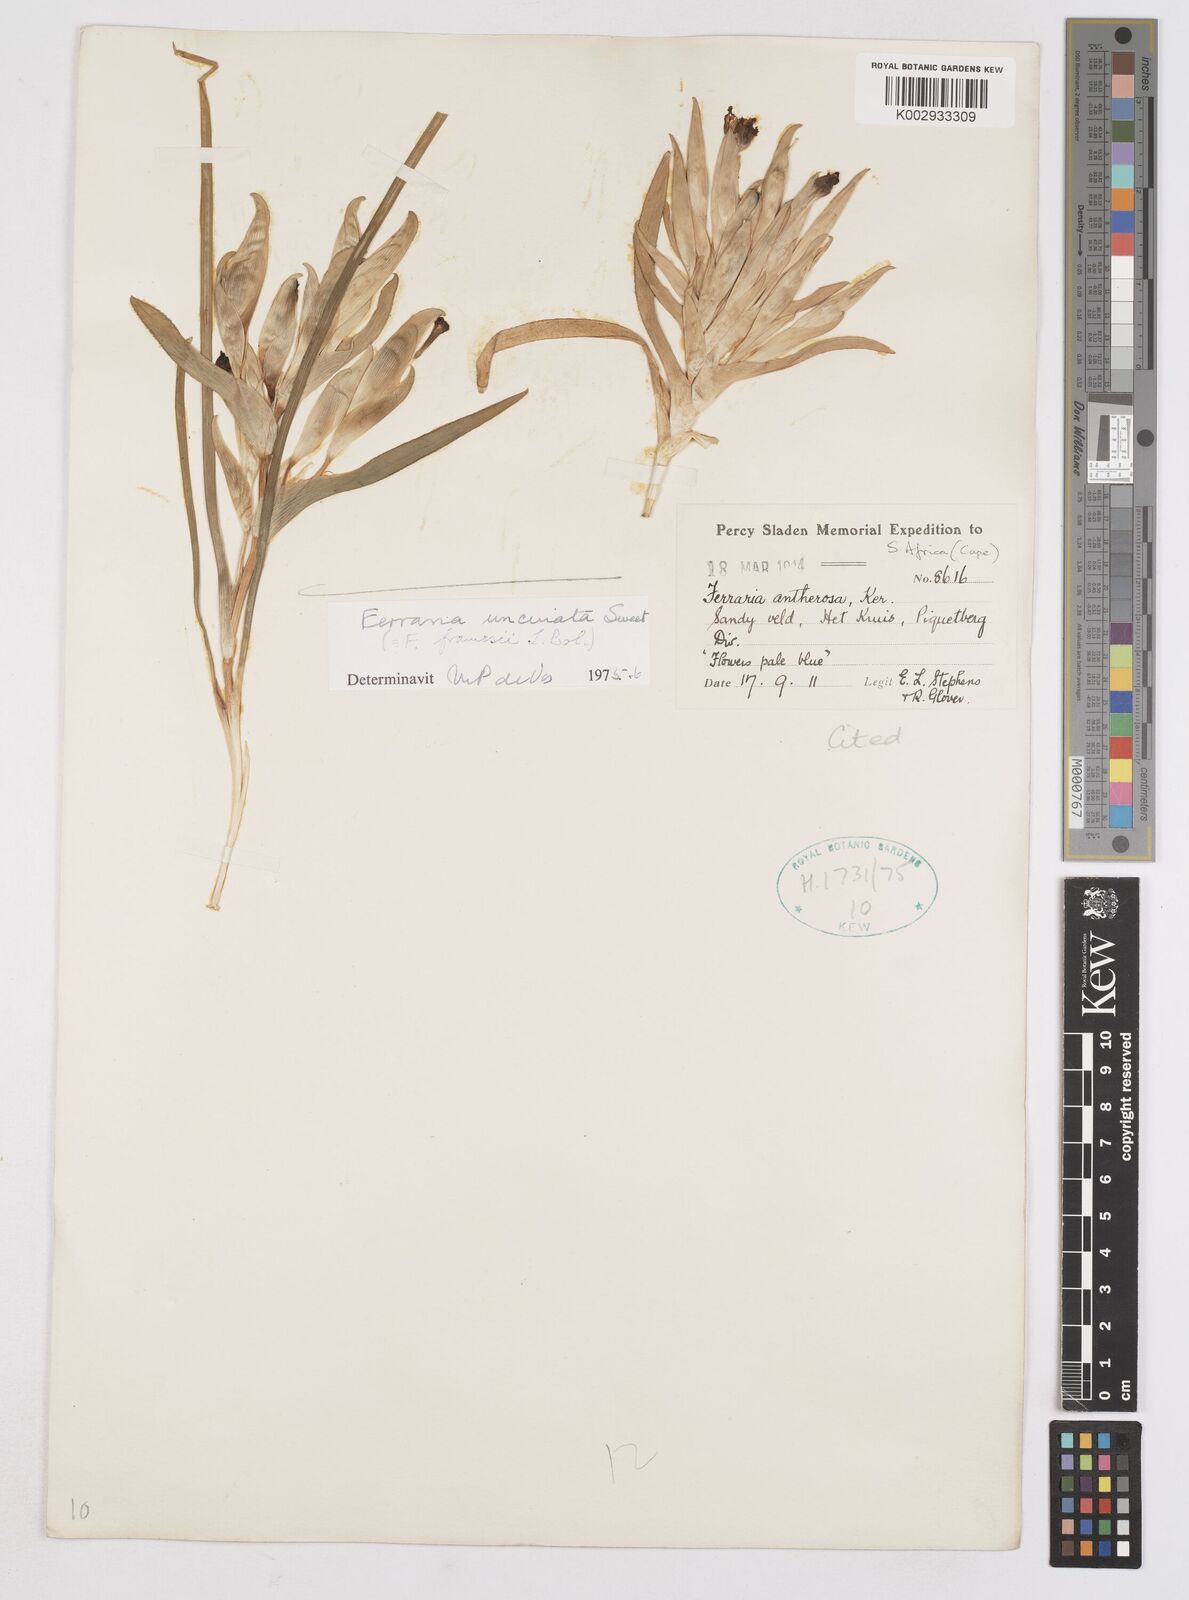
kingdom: Plantae
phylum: Tracheophyta
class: Liliopsida
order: Asparagales
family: Iridaceae
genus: Ferraria
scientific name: Ferraria uncinata
